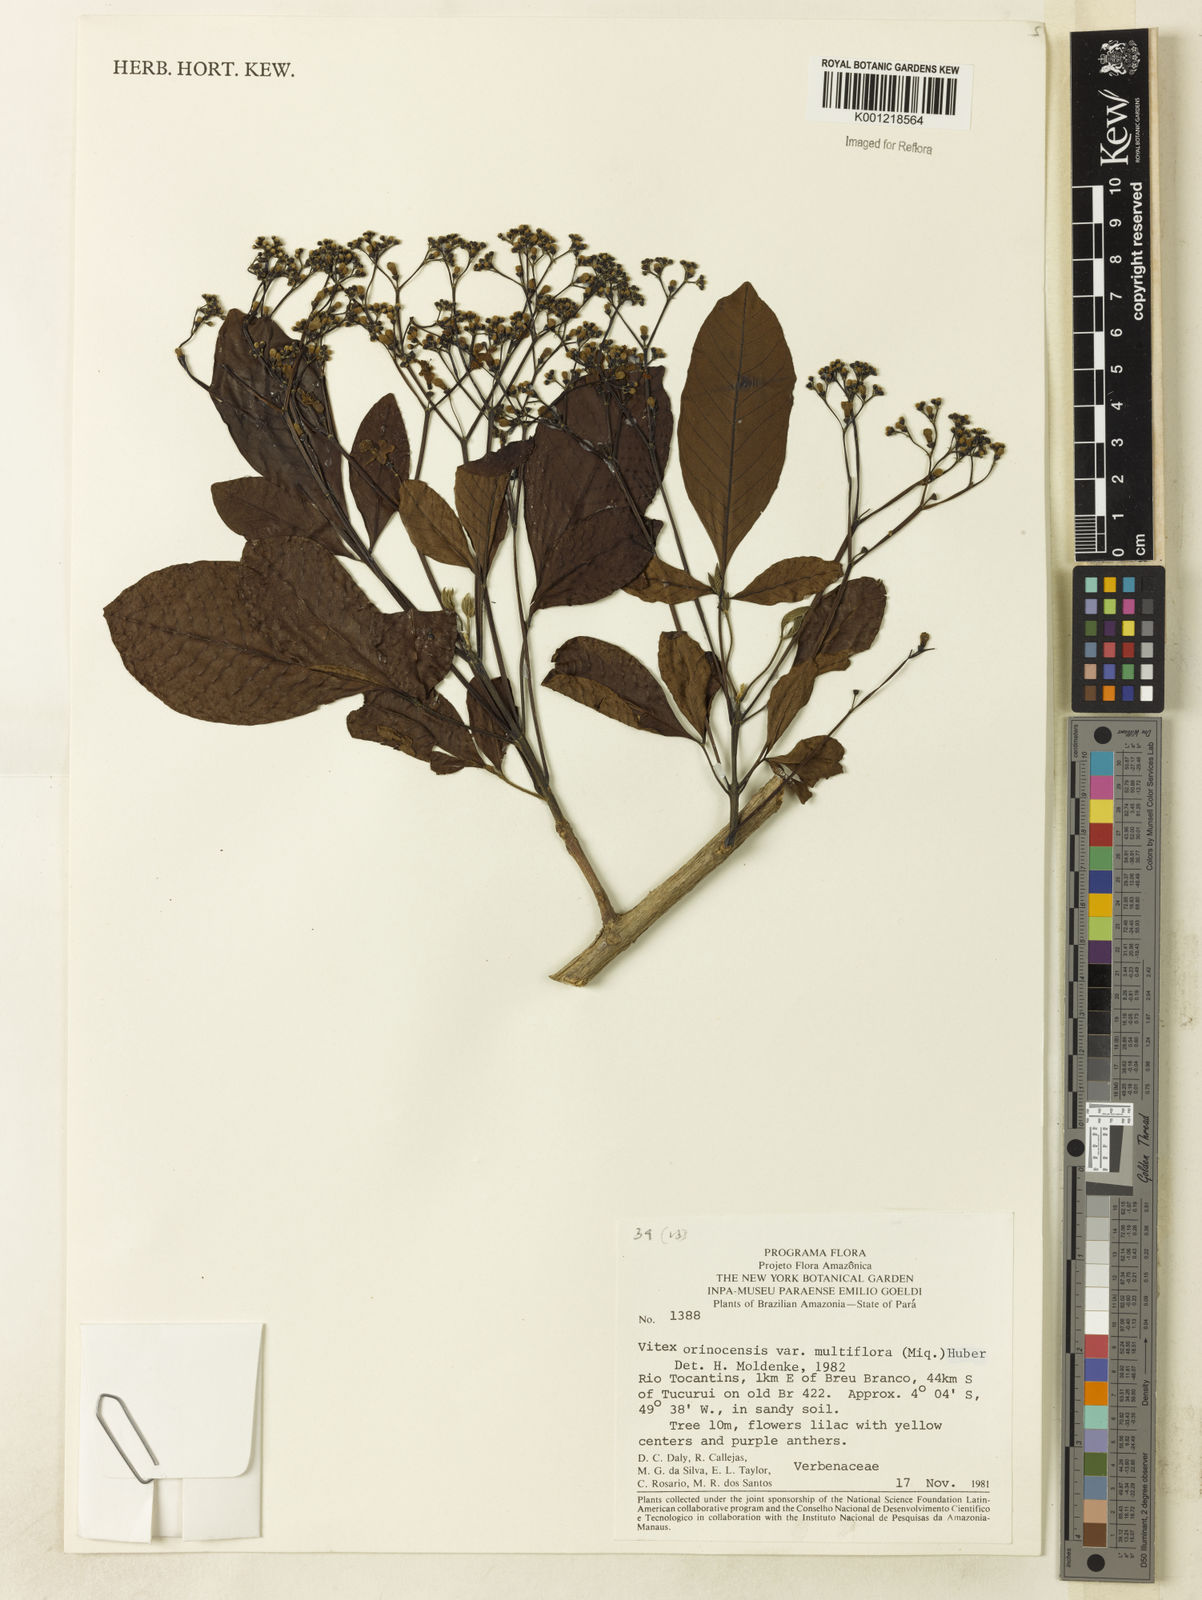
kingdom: Plantae
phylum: Tracheophyta
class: Magnoliopsida
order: Lamiales
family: Lamiaceae
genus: Vitex
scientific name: Vitex orinocensis
